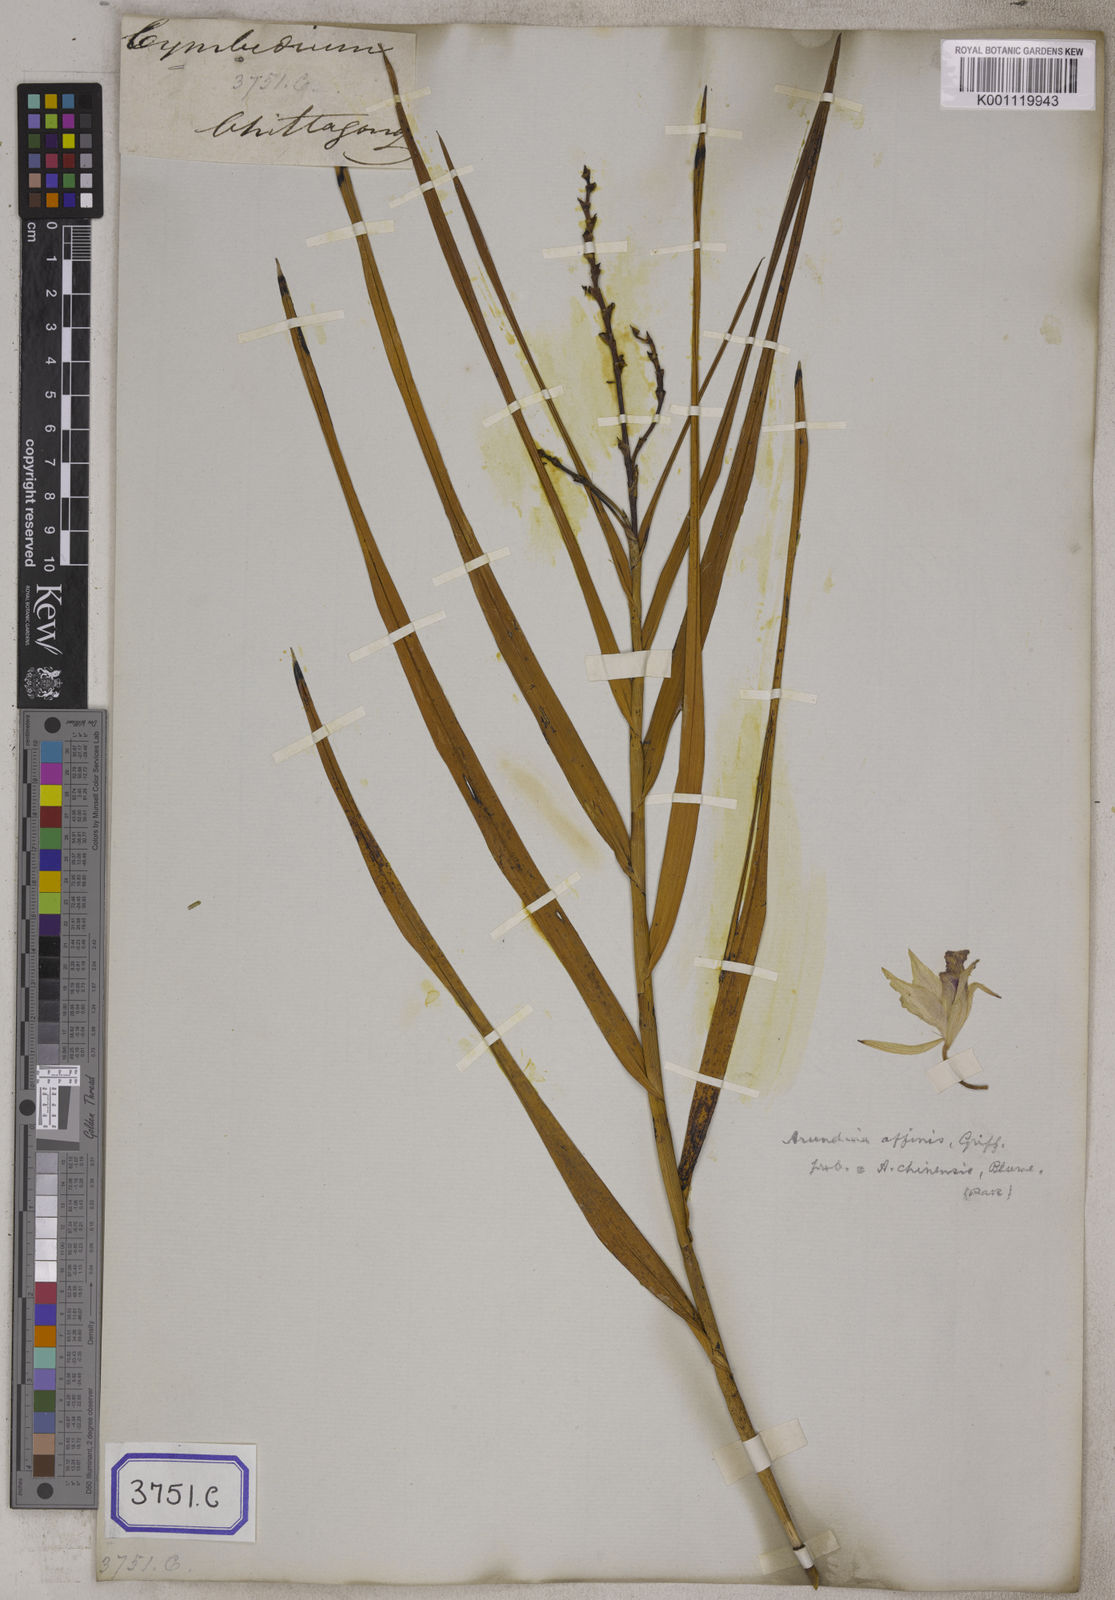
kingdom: Plantae
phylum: Tracheophyta
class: Liliopsida
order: Asparagales
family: Orchidaceae
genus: Arundina
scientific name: Arundina graminifolia
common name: Bamboo orchid
